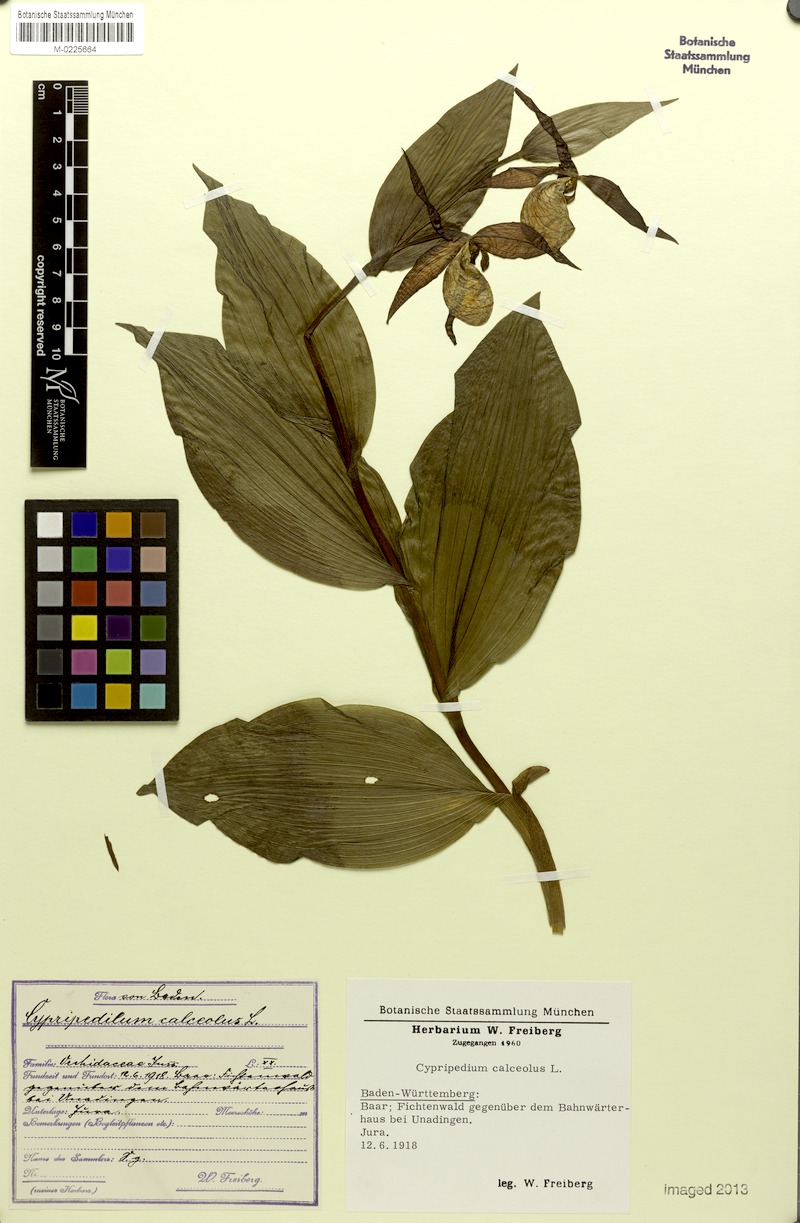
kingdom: Plantae
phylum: Tracheophyta
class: Liliopsida
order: Asparagales
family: Orchidaceae
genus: Cypripedium
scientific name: Cypripedium calceolus
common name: Lady's-slipper
